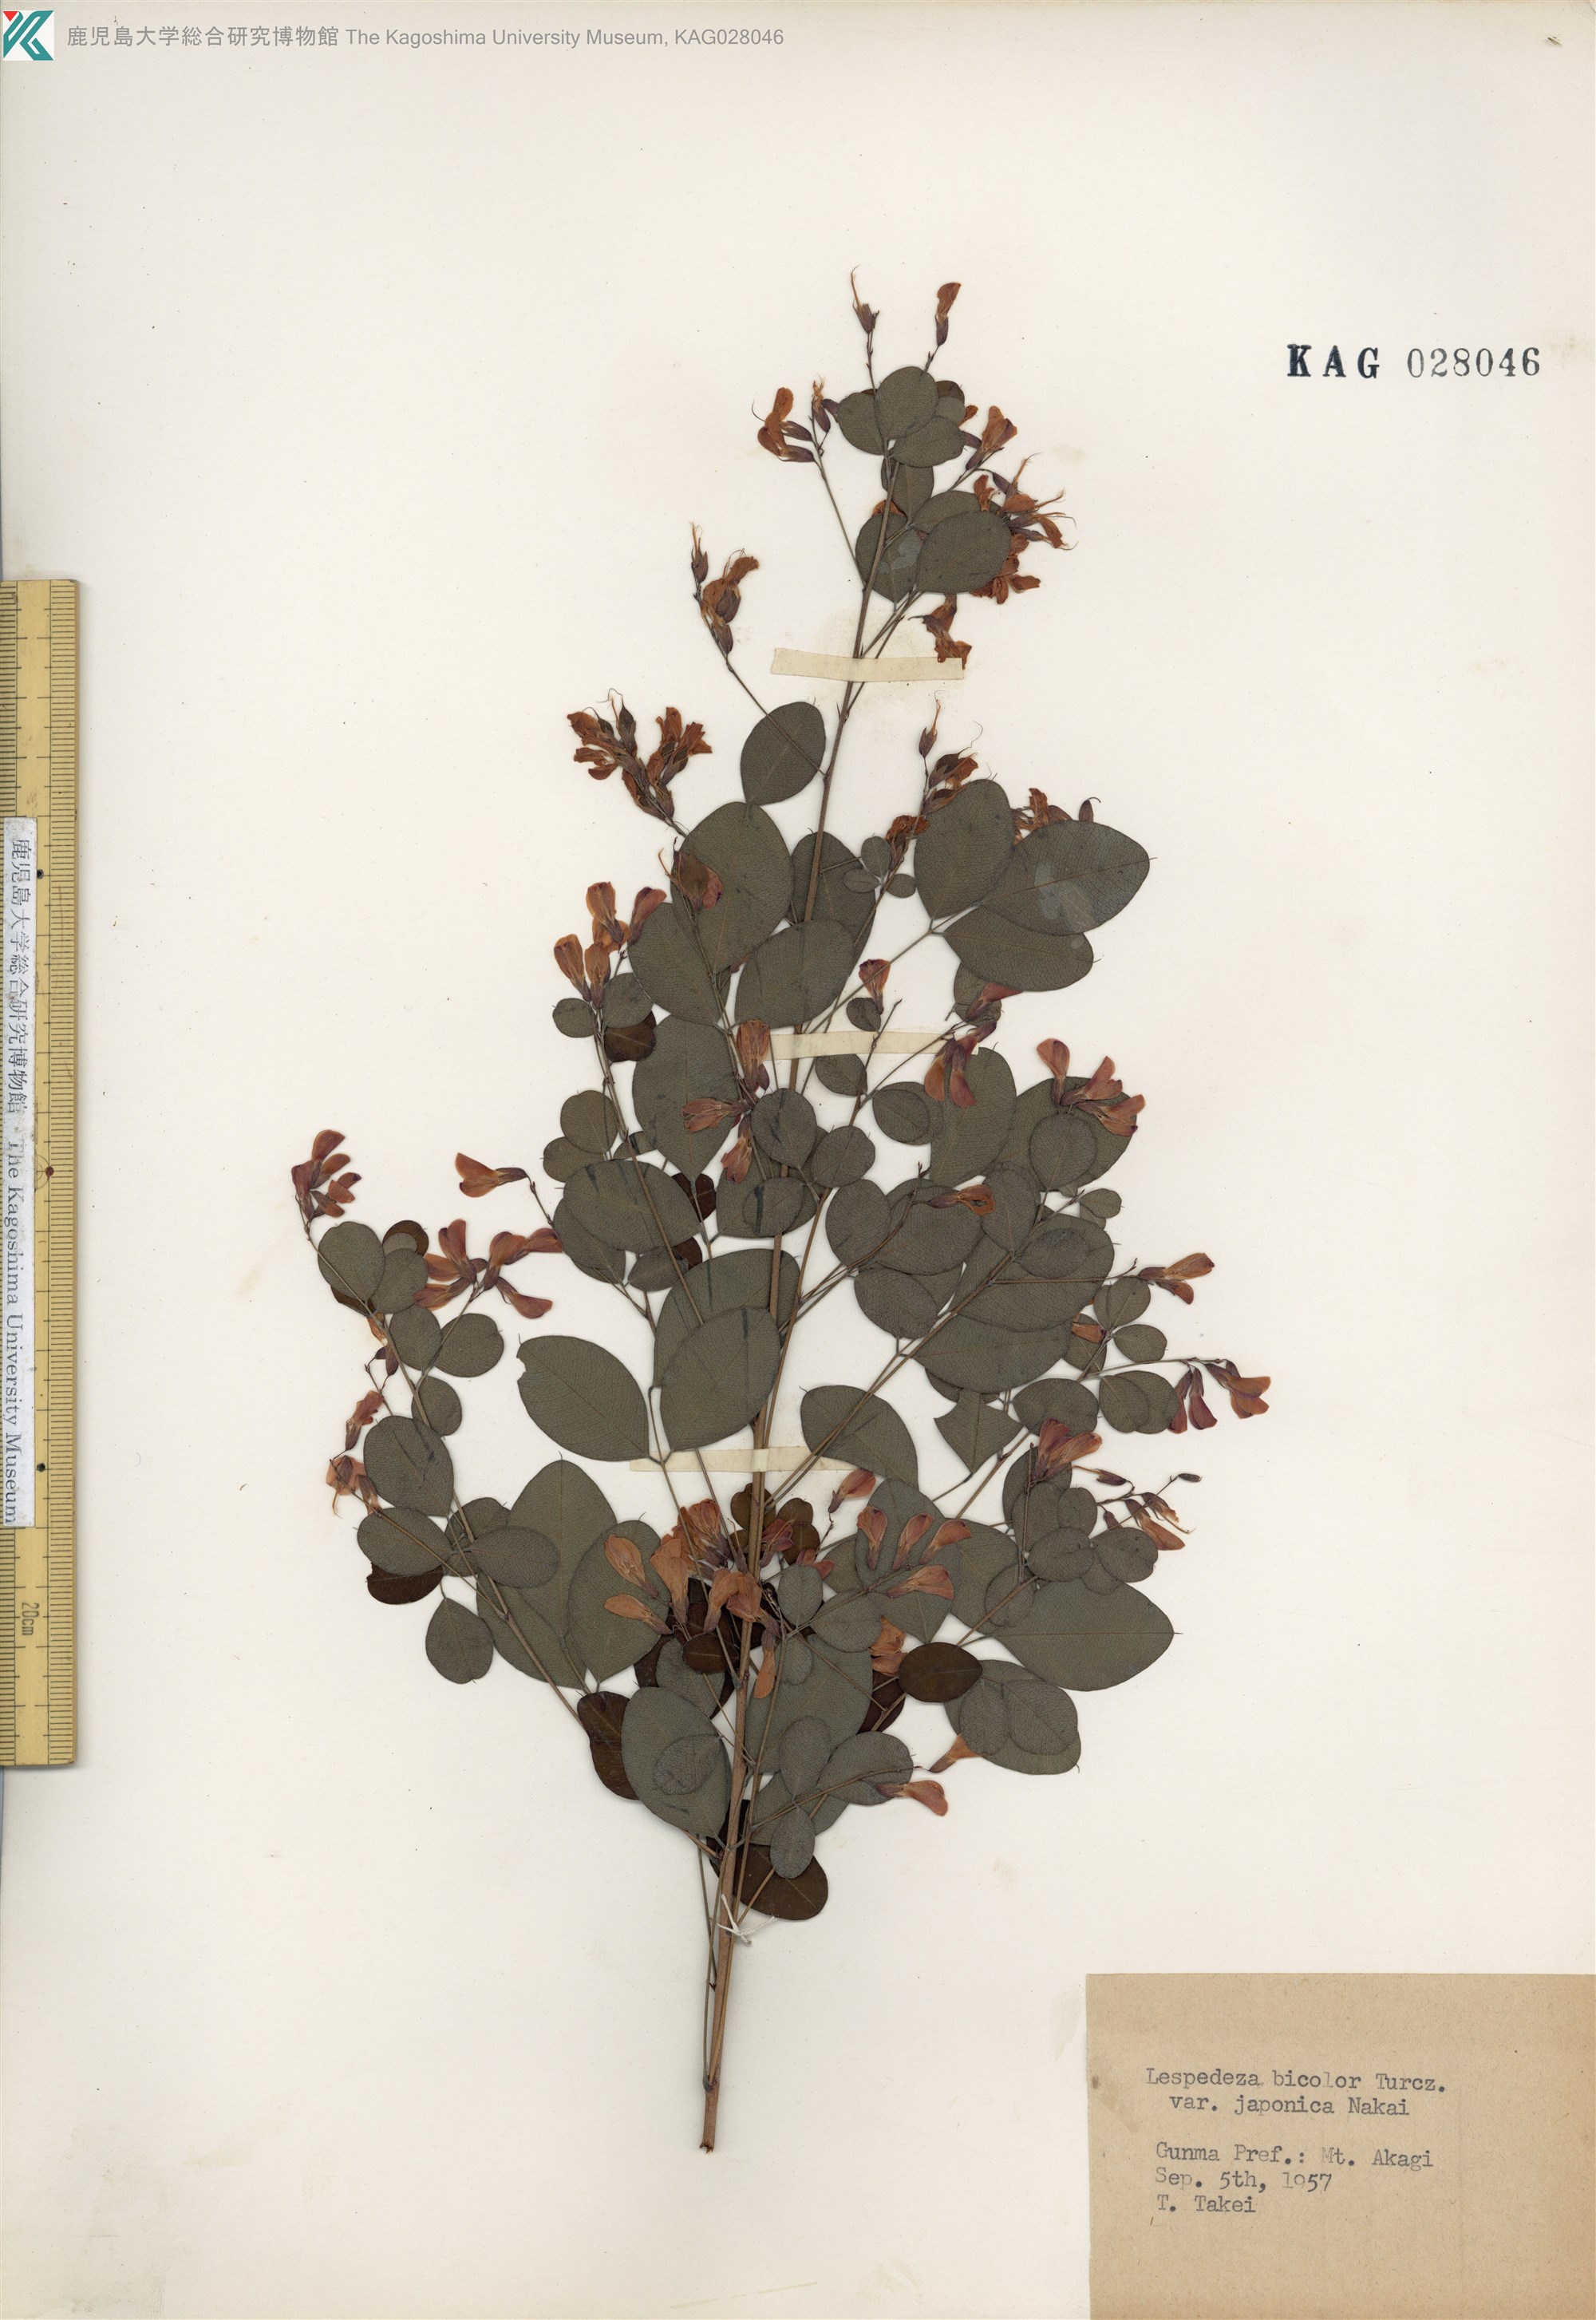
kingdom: Plantae
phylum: Tracheophyta
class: Magnoliopsida
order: Fabales
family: Fabaceae
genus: Lespedeza
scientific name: Lespedeza bicolor
